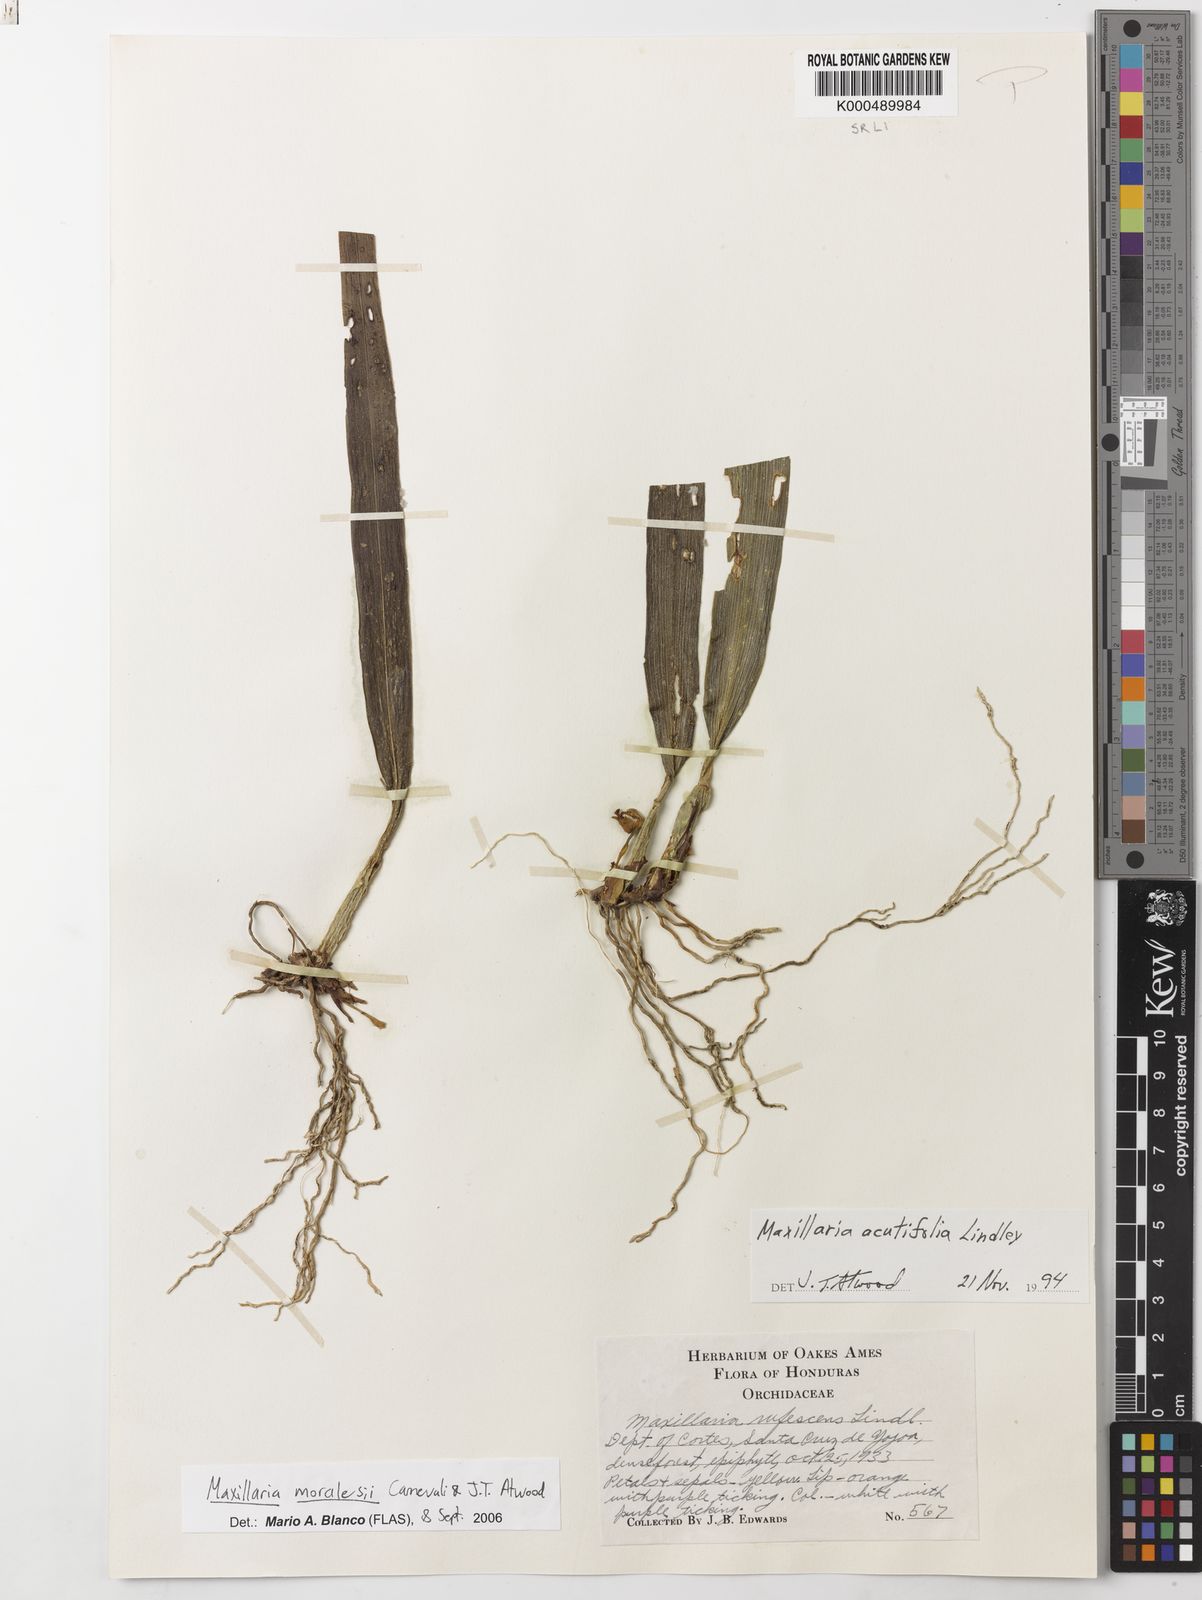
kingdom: Plantae
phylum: Tracheophyta
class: Liliopsida
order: Asparagales
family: Orchidaceae
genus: Maxillaria
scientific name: Maxillaria acutifolia
